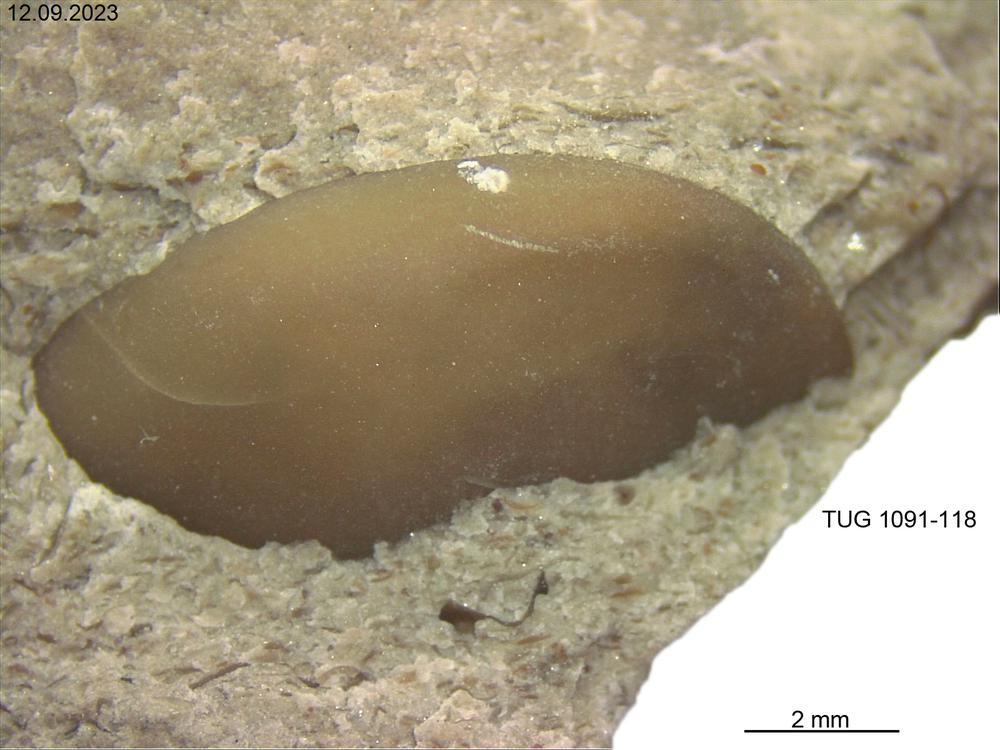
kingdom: Animalia
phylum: Arthropoda
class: Ostracoda
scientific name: Ostracoda
